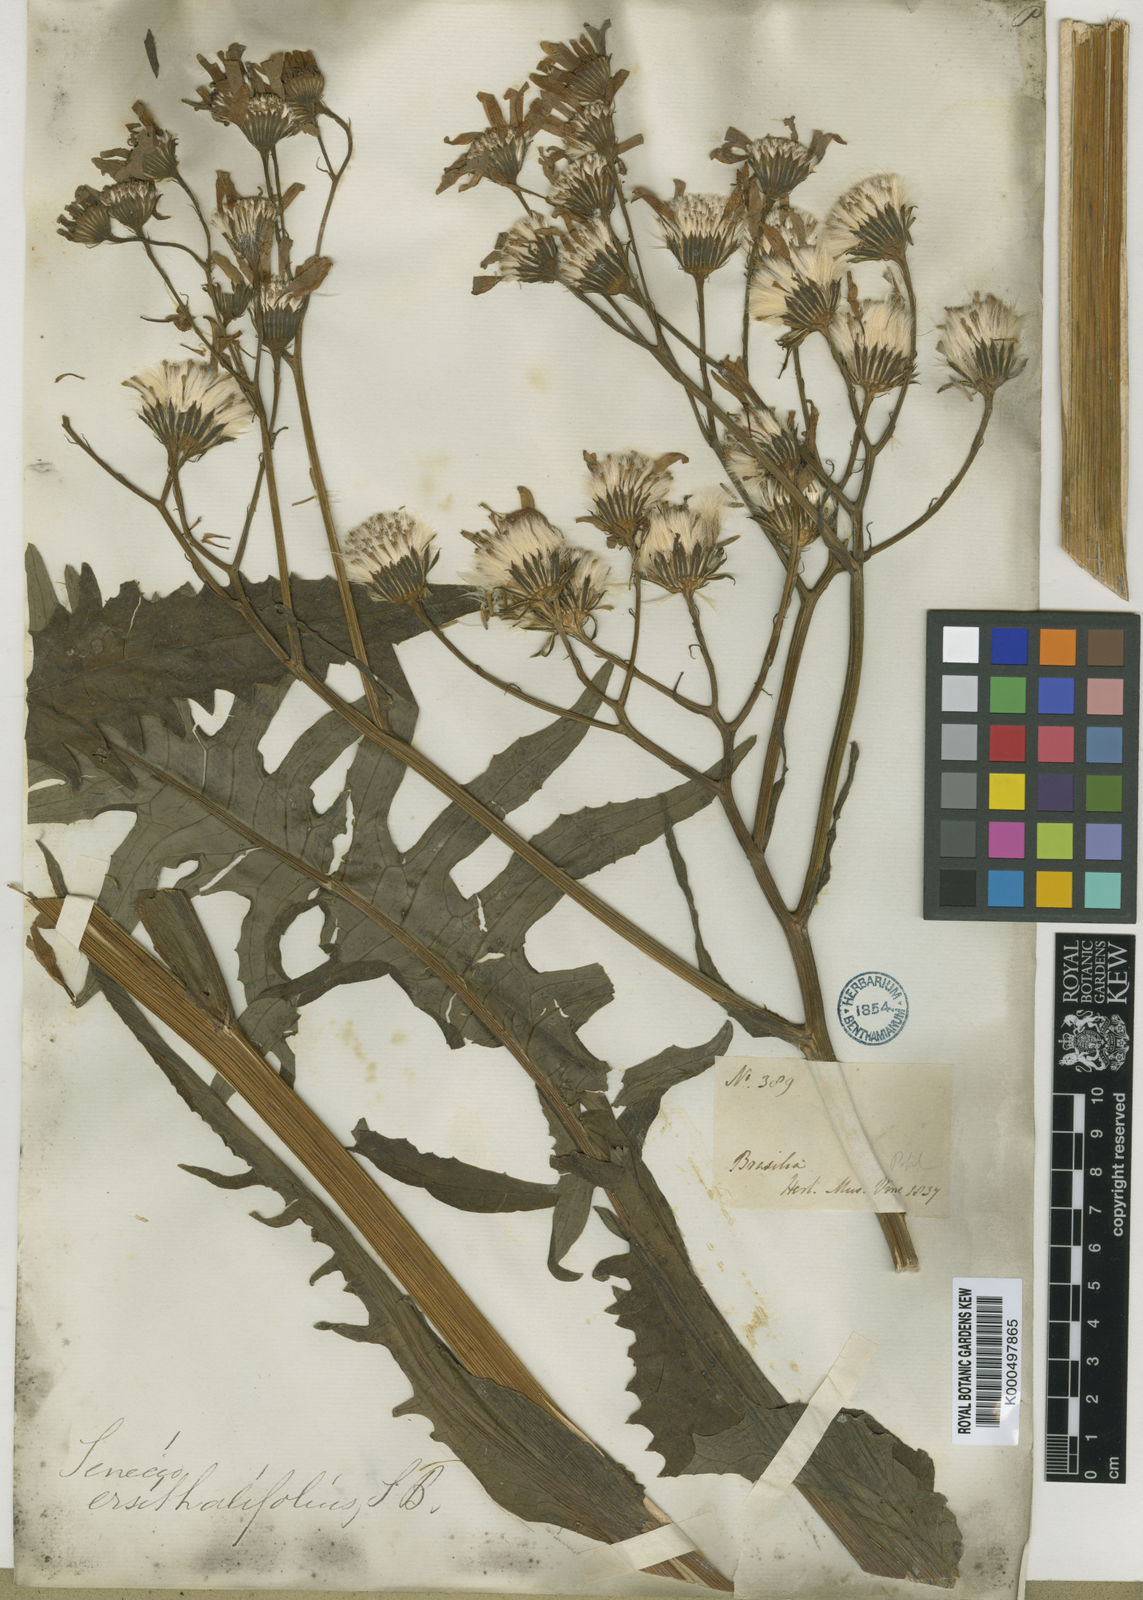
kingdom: Plantae
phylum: Tracheophyta
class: Magnoliopsida
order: Asterales
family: Asteraceae
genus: Senecio
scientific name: Senecio
